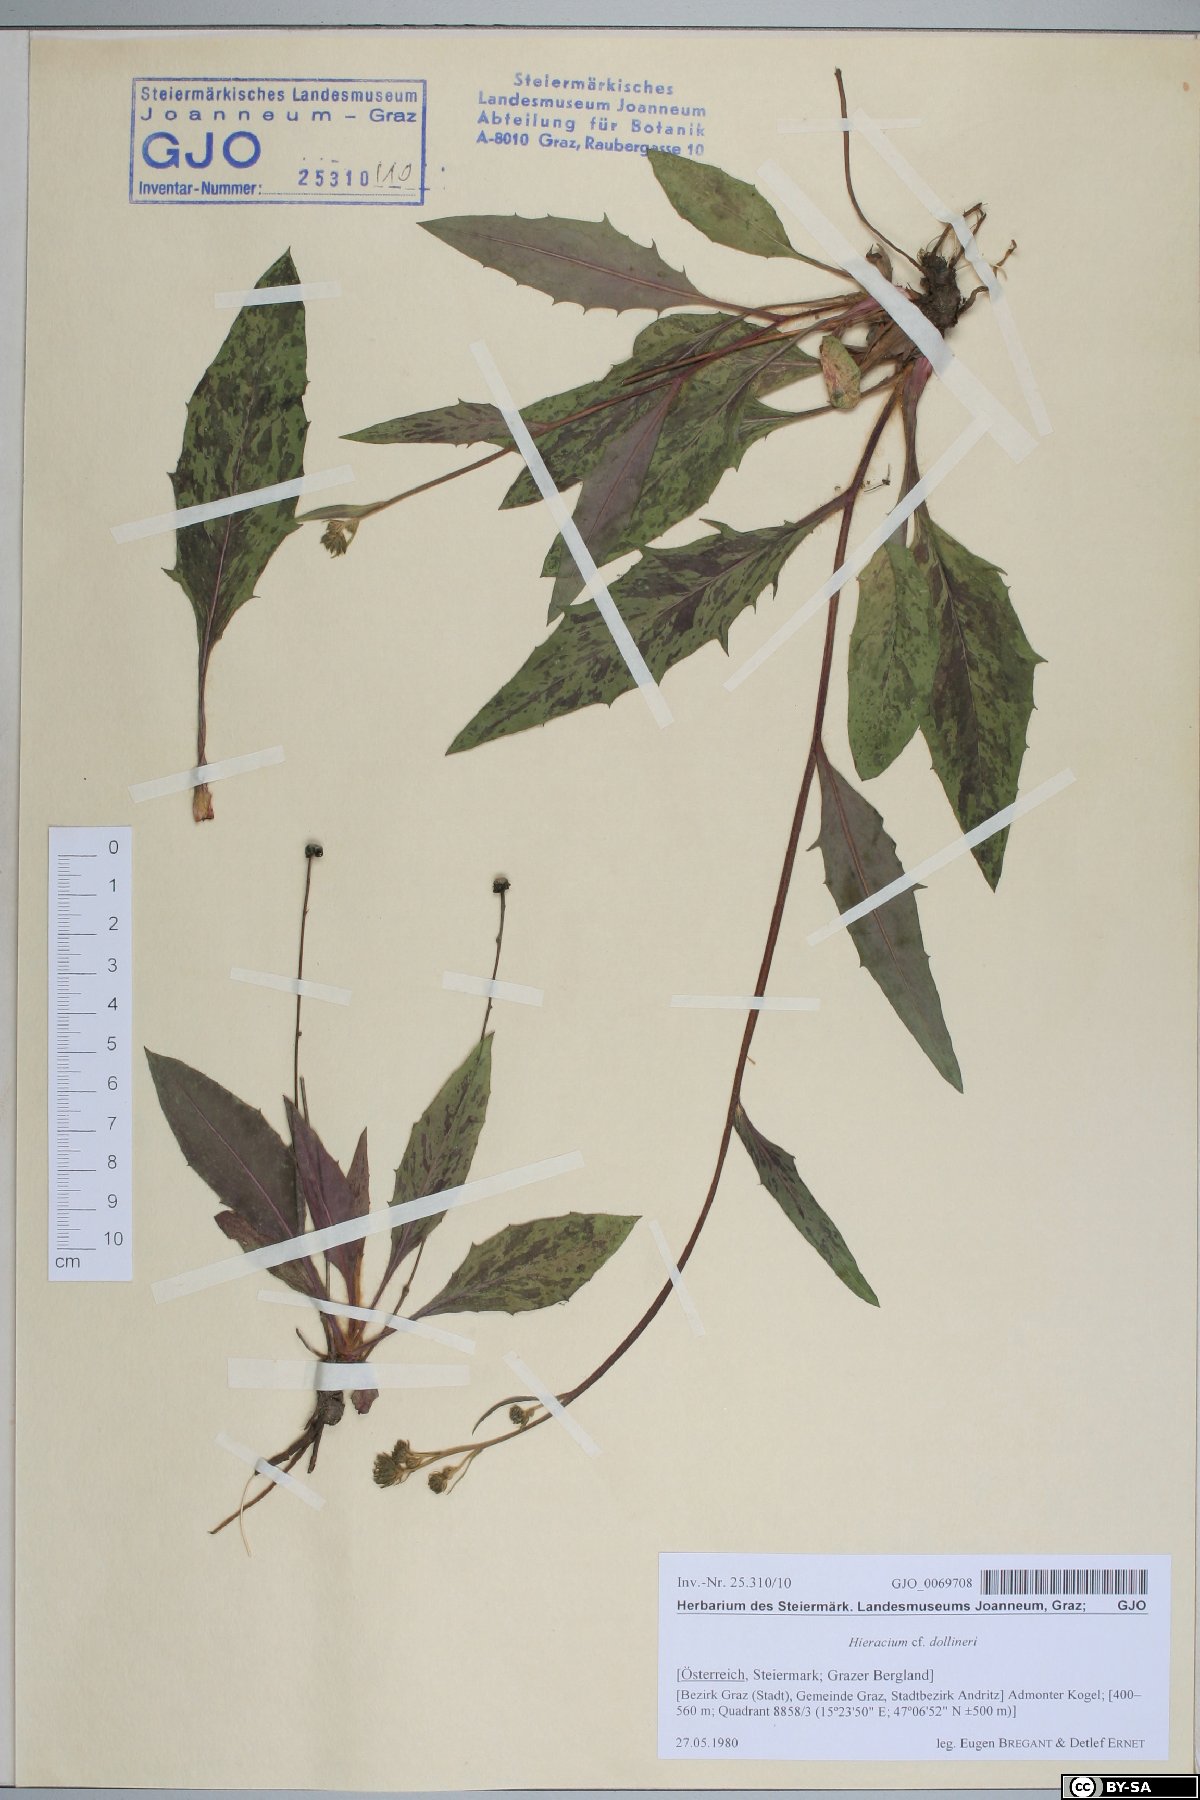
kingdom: Plantae
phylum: Tracheophyta
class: Magnoliopsida
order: Asterales
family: Asteraceae
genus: Hieracium
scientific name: Hieracium dollineri
